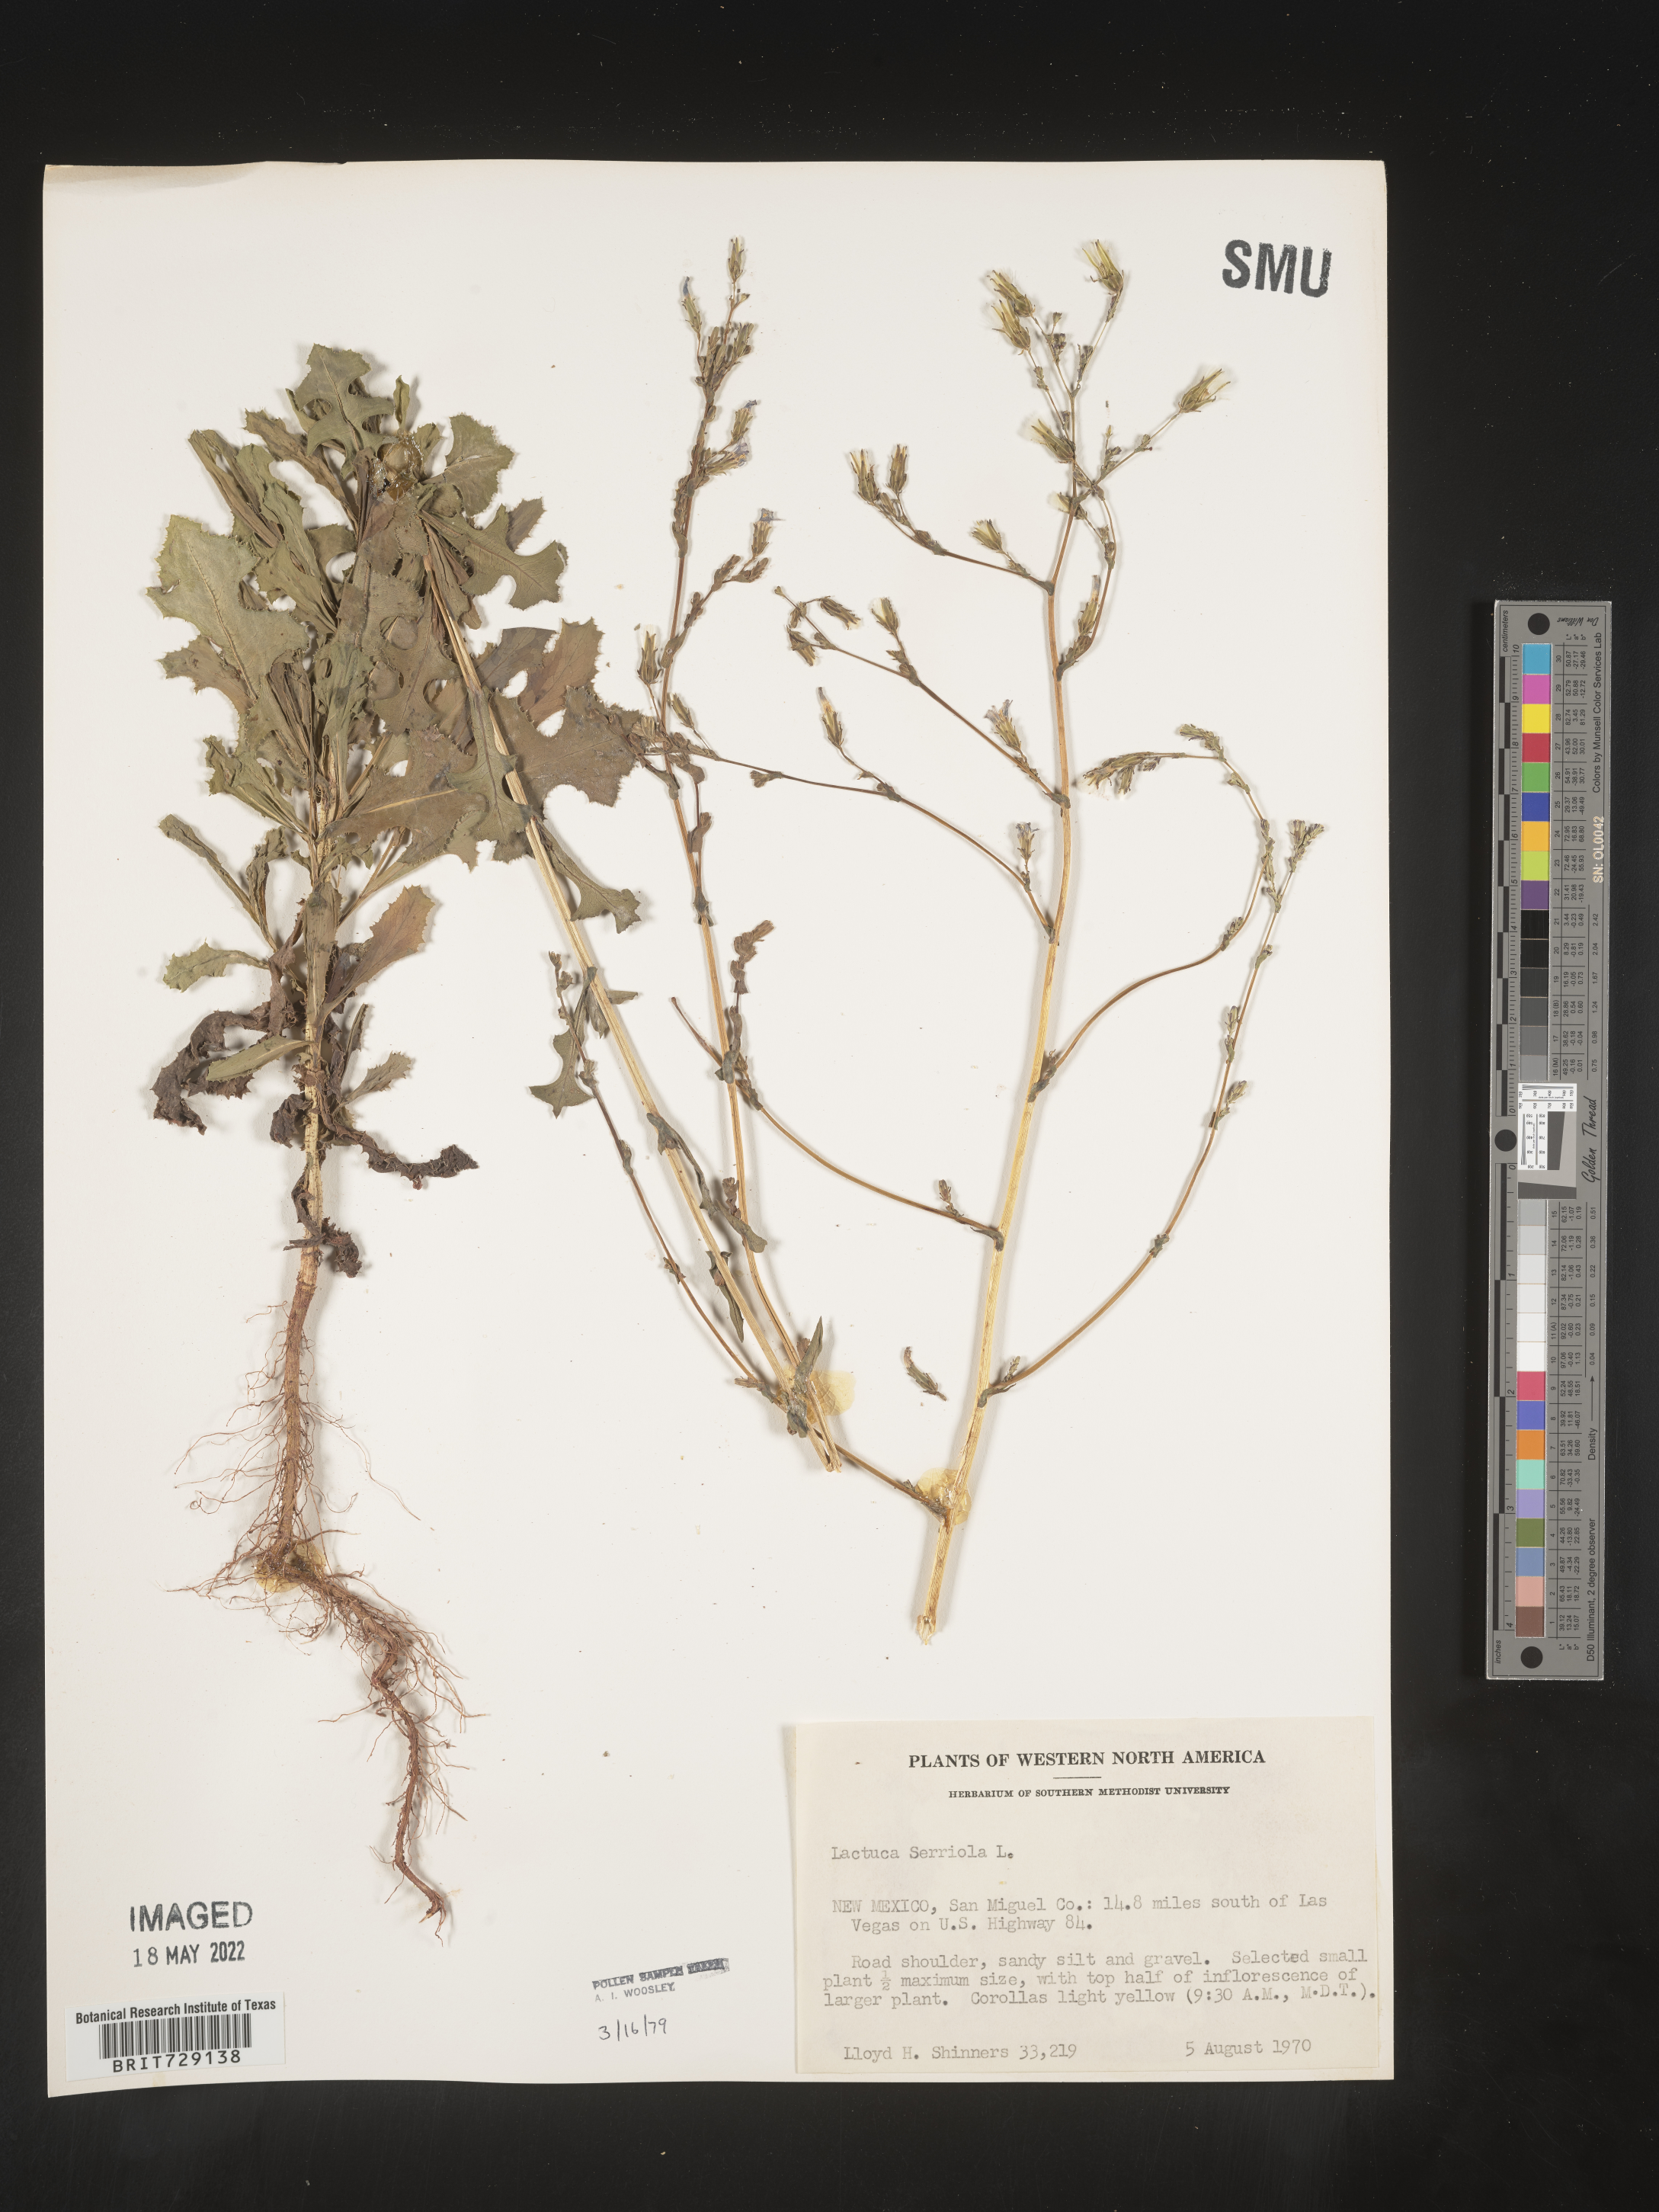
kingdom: Plantae
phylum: Tracheophyta
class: Magnoliopsida
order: Asterales
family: Asteraceae
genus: Lactuca
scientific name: Lactuca serriola
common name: Prickly lettuce
